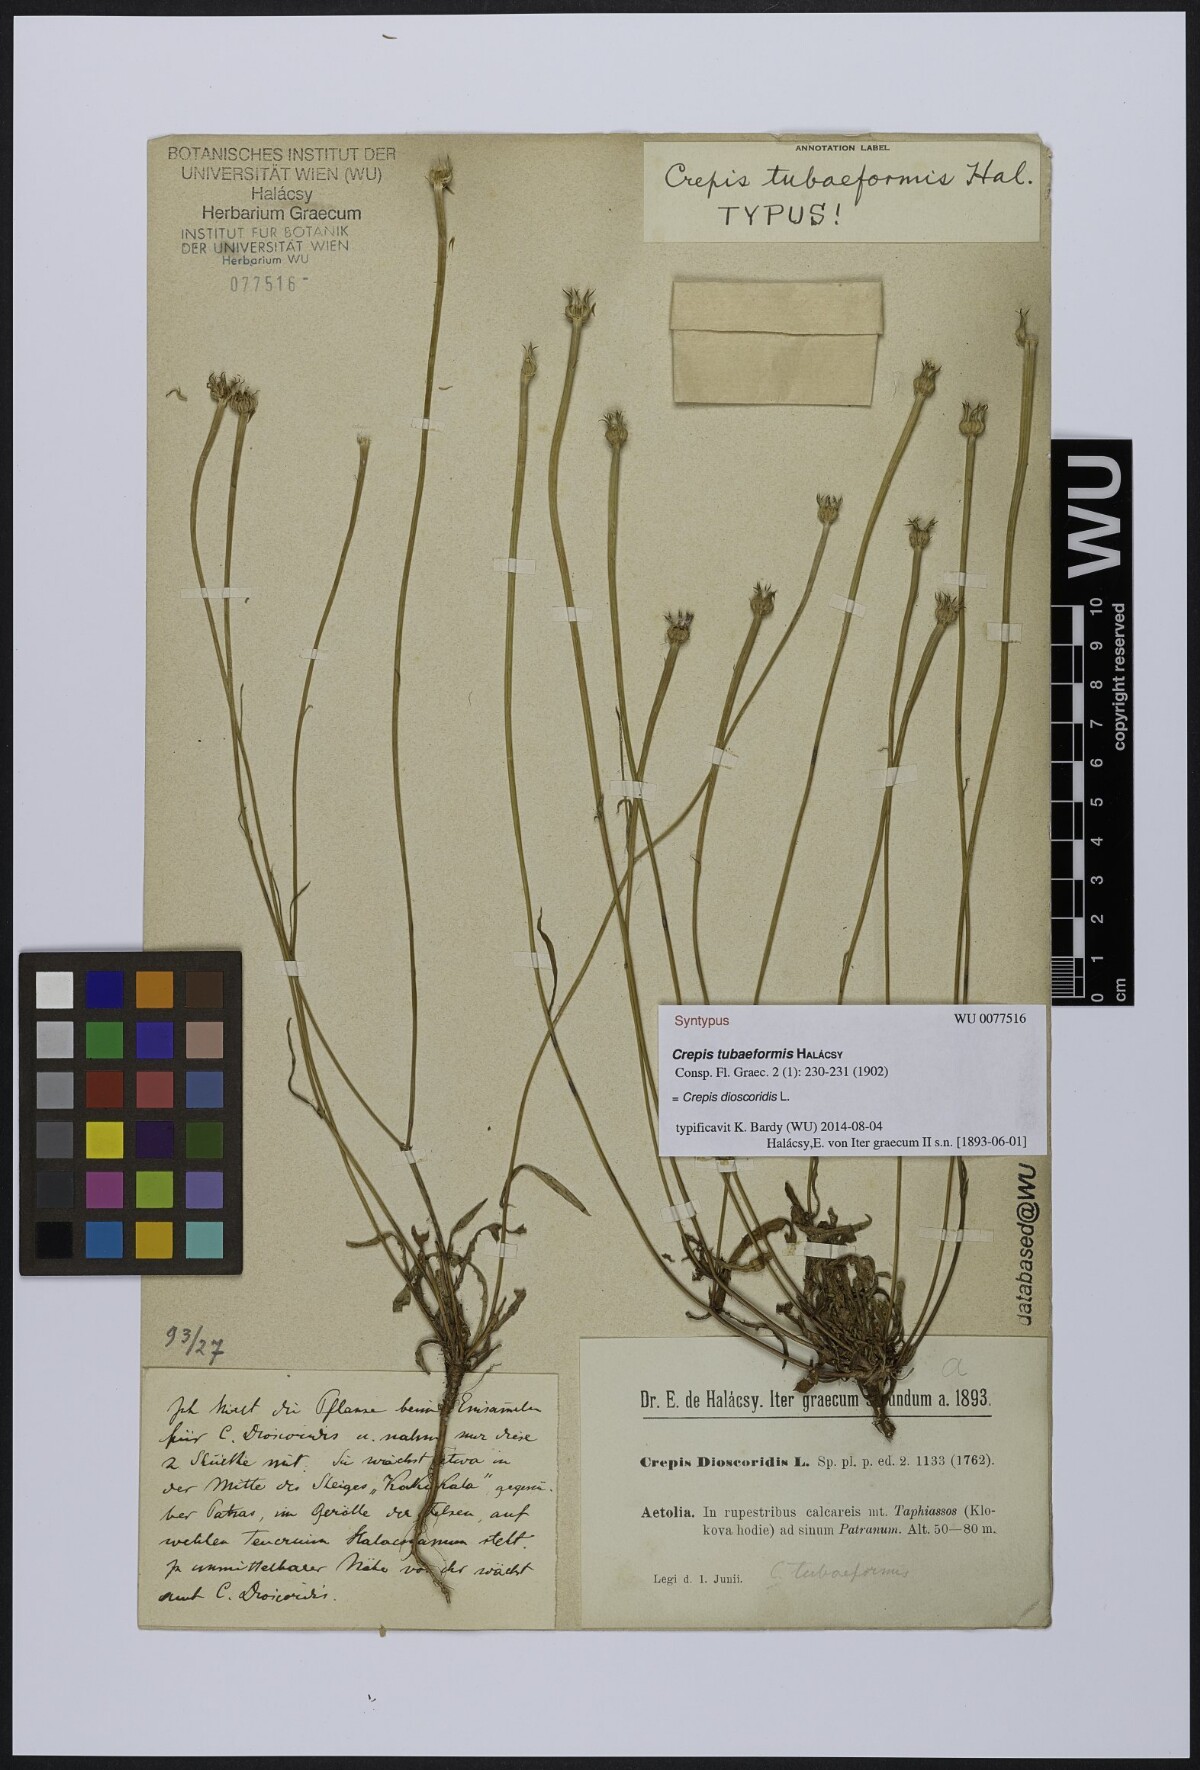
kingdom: Plantae
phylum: Tracheophyta
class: Magnoliopsida
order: Asterales
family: Asteraceae
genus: Crepis
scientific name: Crepis dioscoridis
